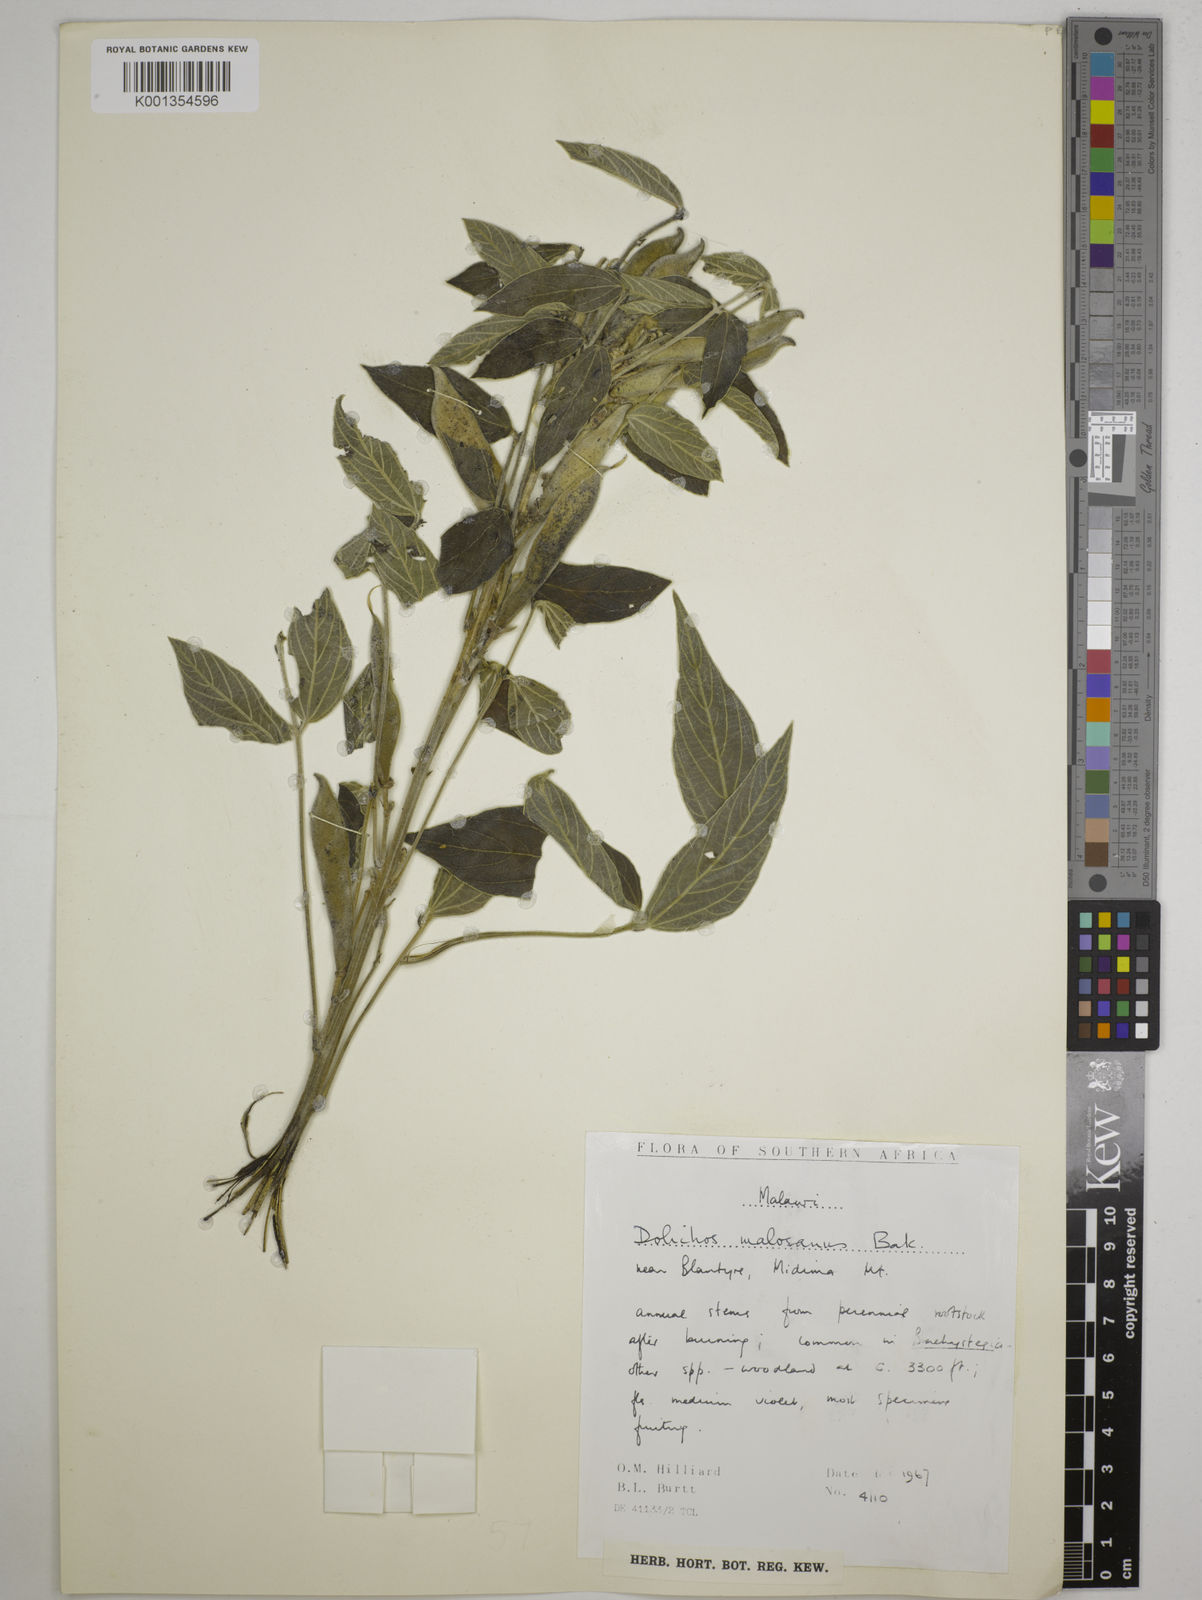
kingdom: Plantae
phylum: Tracheophyta
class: Magnoliopsida
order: Fabales
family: Fabaceae
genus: Dolichos
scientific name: Dolichos kilimandscharicus
